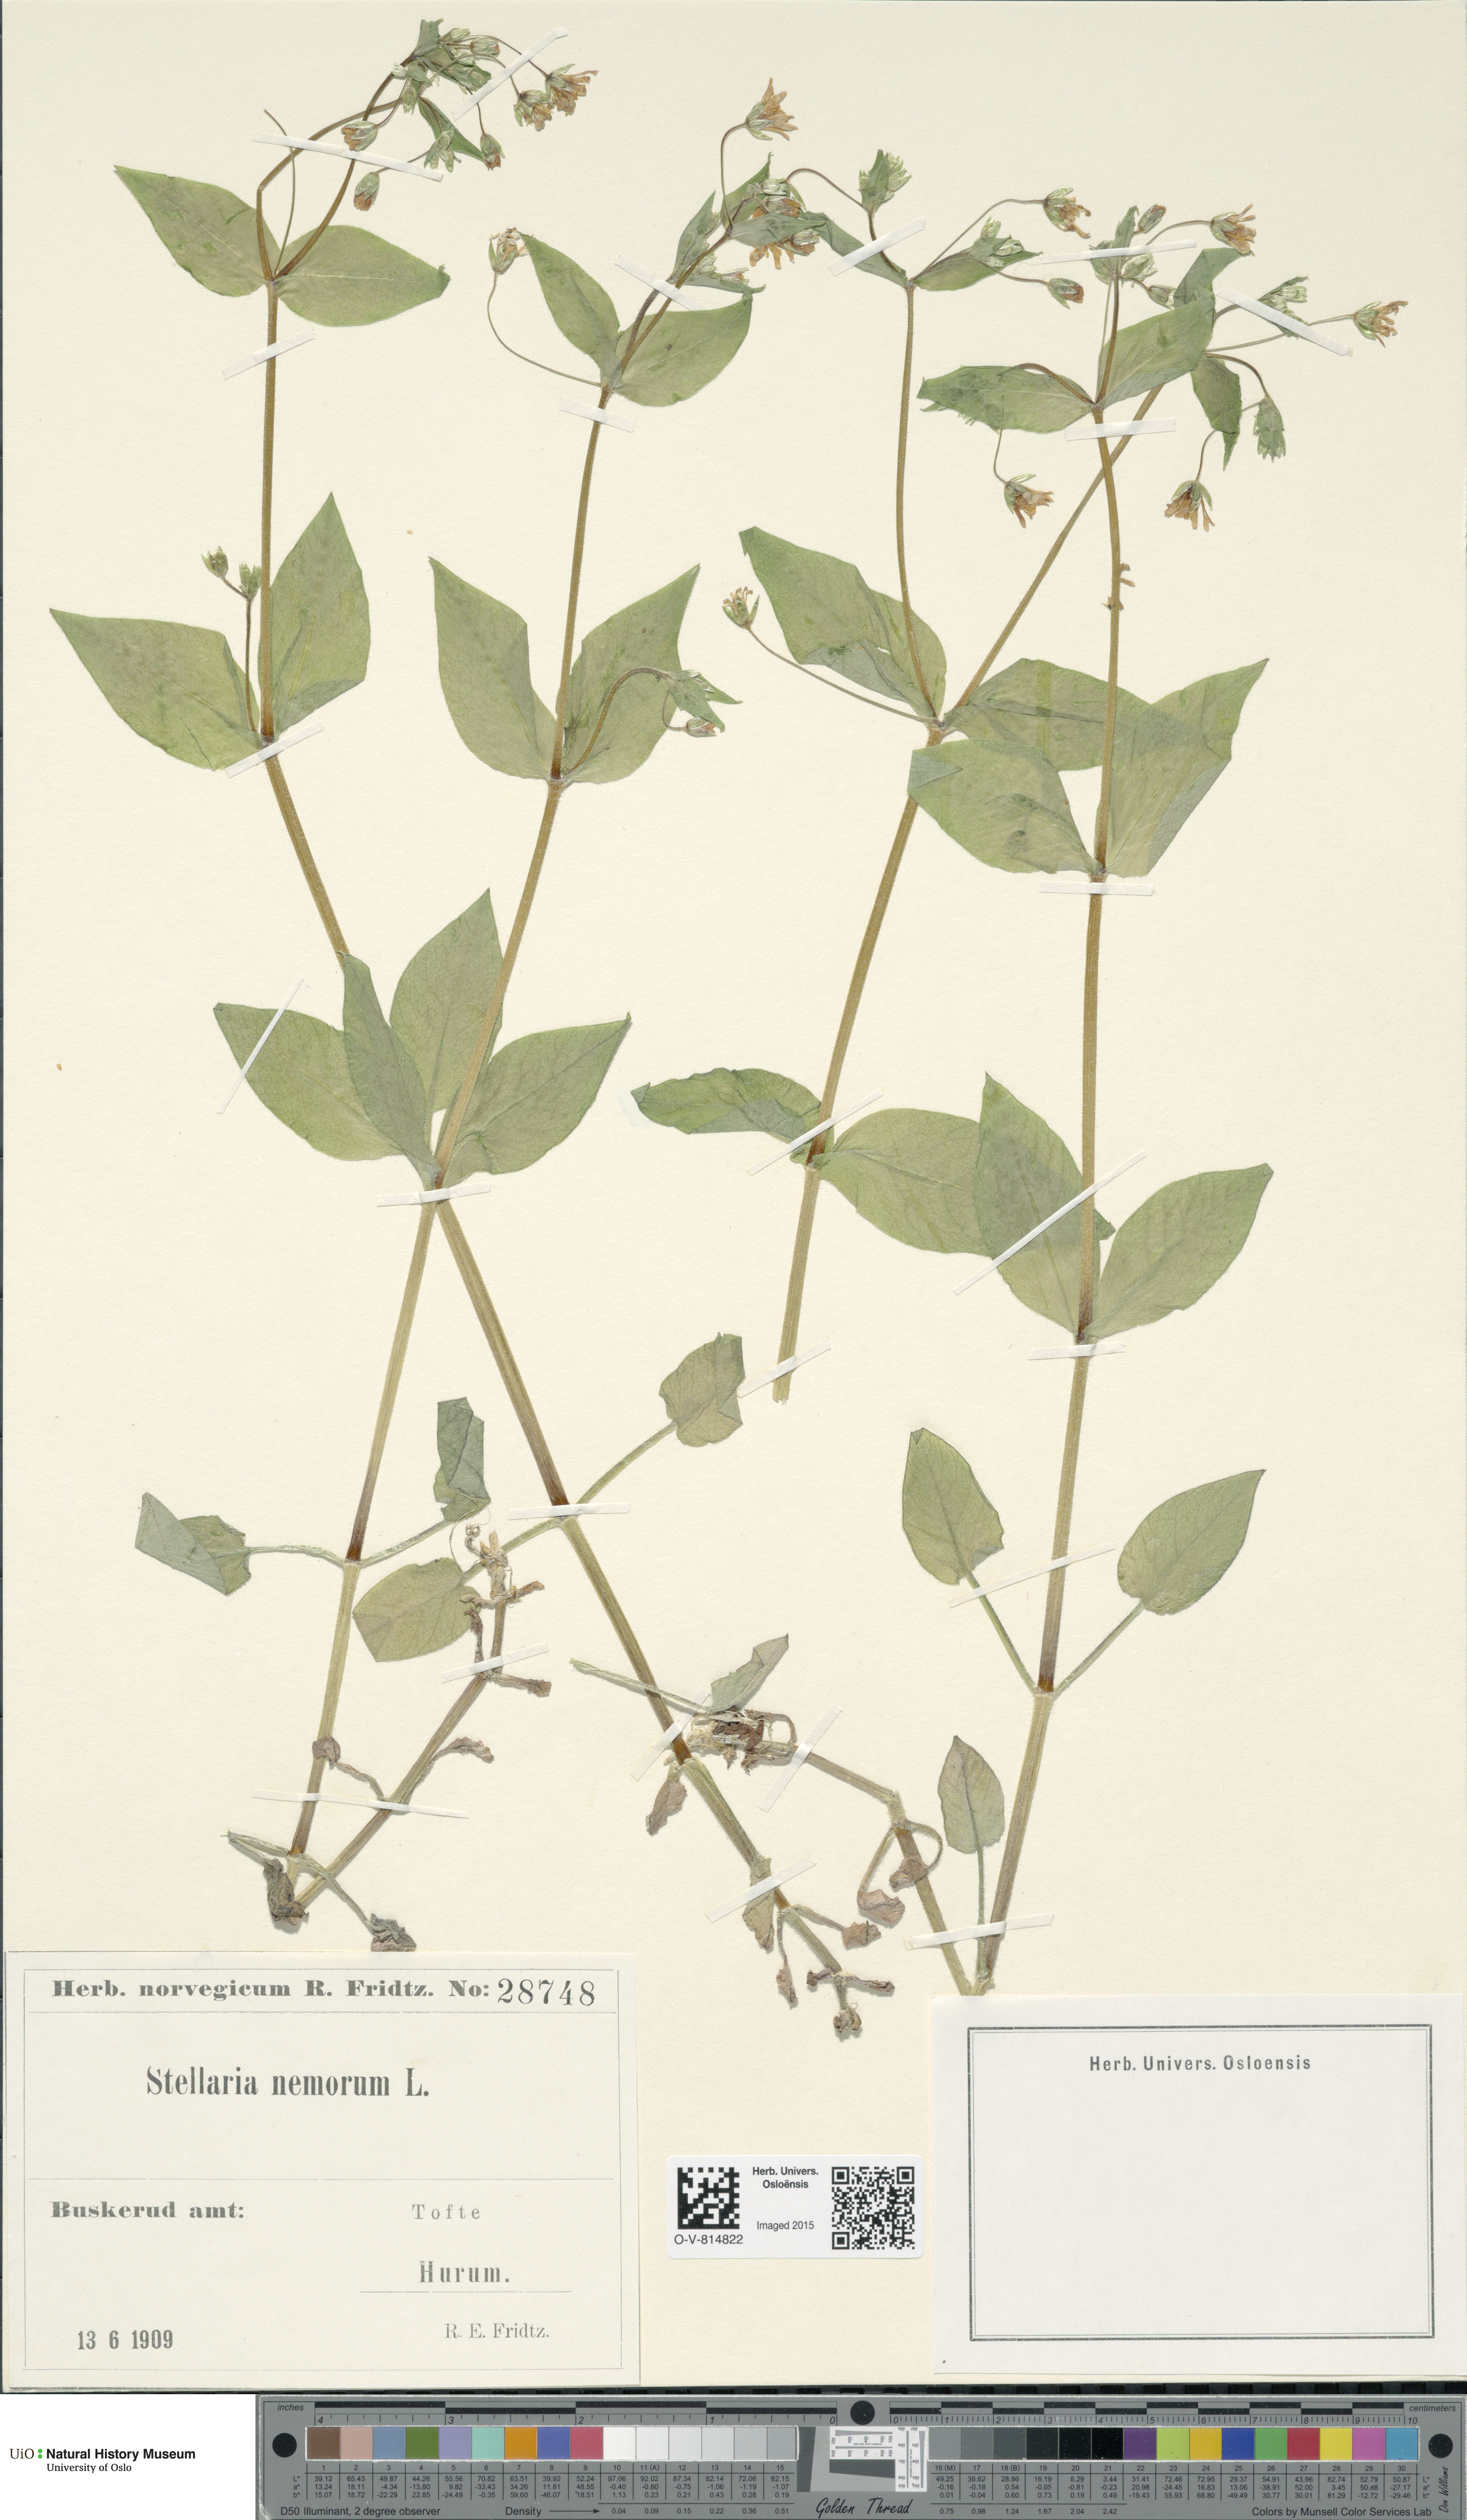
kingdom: Plantae
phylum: Tracheophyta
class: Magnoliopsida
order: Caryophyllales
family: Caryophyllaceae
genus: Stellaria
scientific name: Stellaria nemorum
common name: Wood stitchwort
